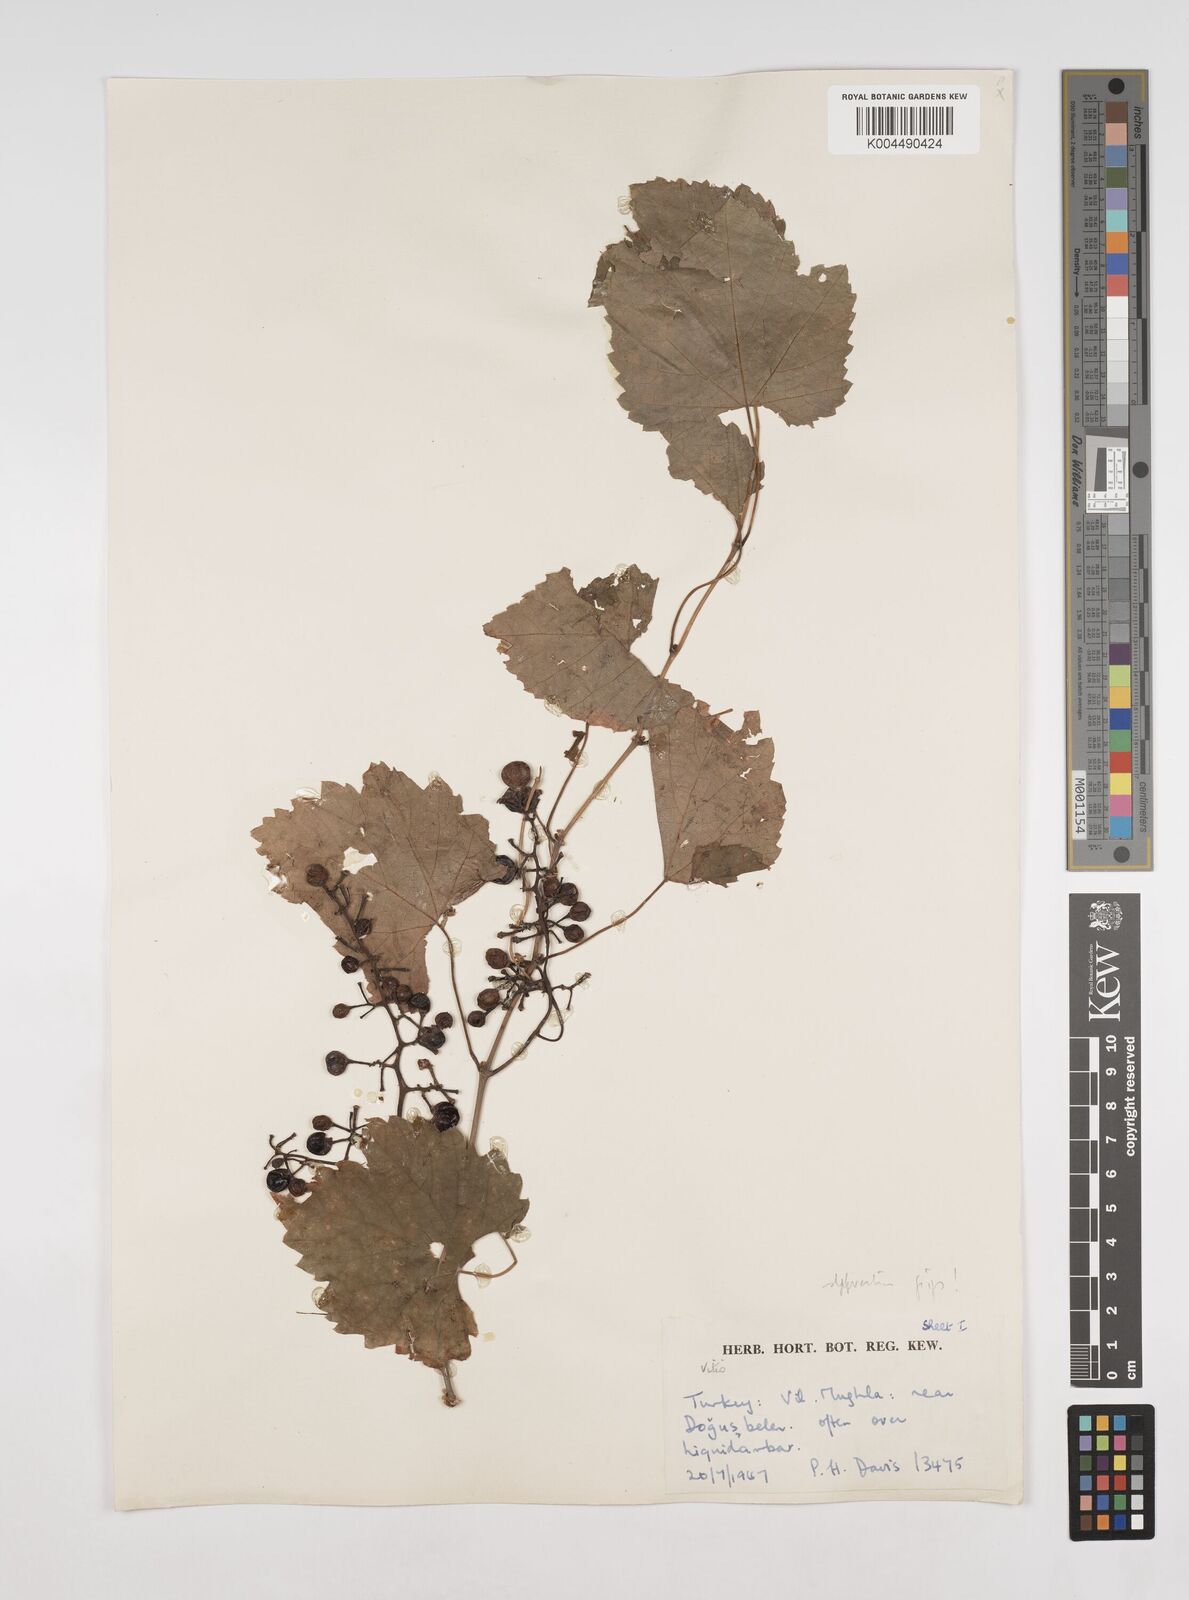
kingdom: Plantae
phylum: Tracheophyta
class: Magnoliopsida
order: Vitales
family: Vitaceae
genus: Vitis
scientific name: Vitis gmelinii
